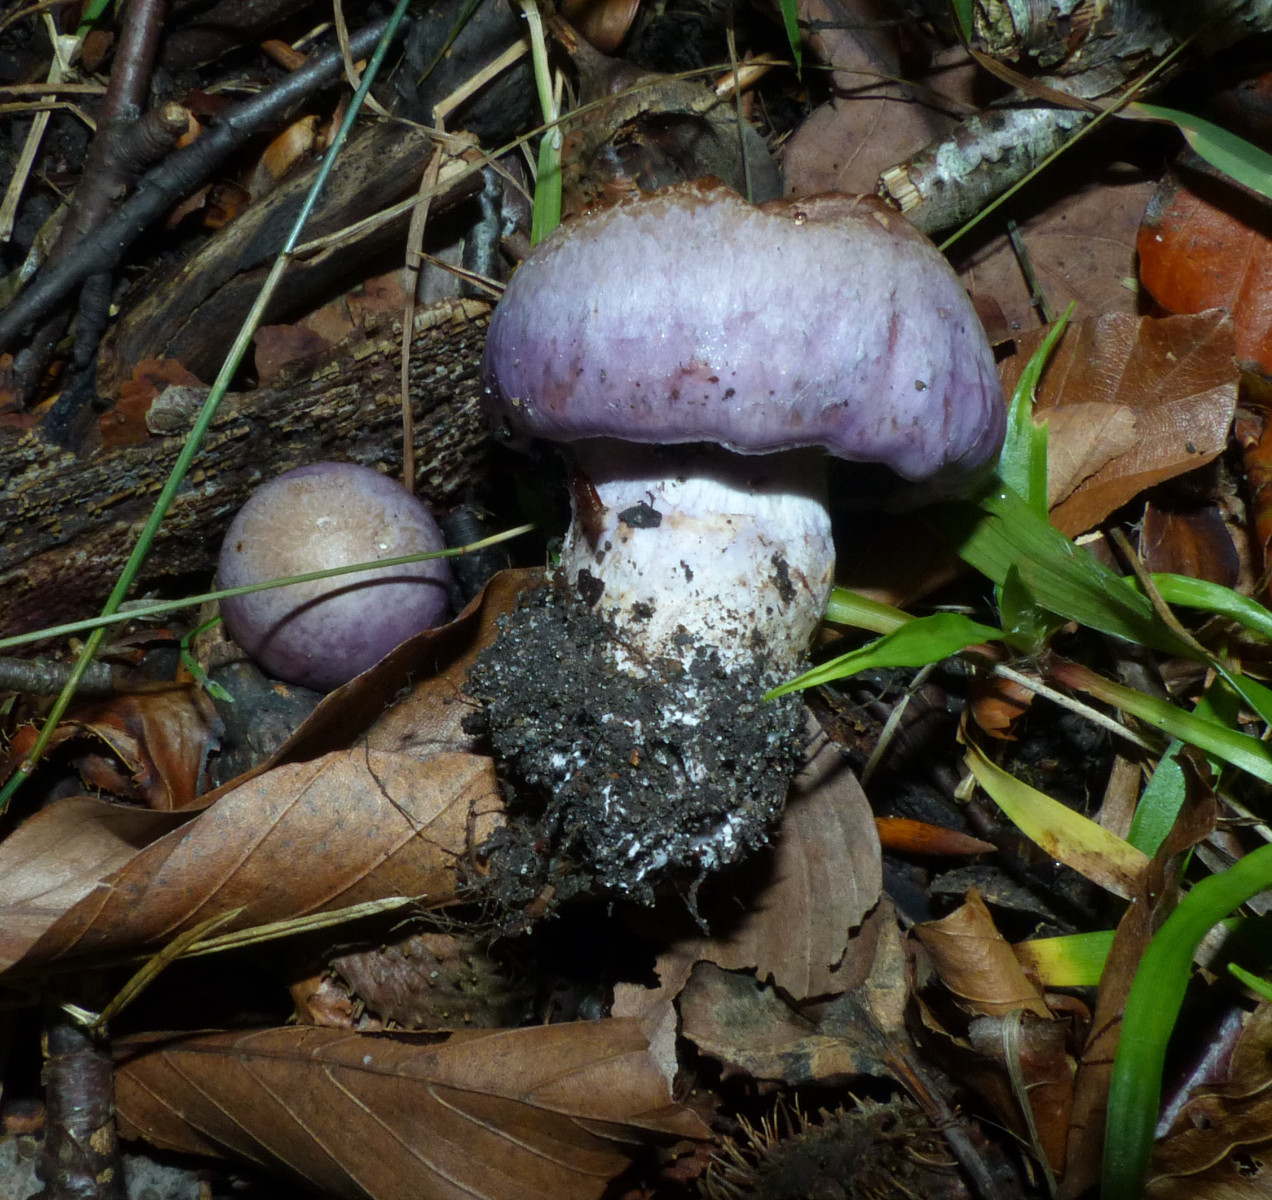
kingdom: Fungi
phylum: Basidiomycota
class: Agaricomycetes
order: Agaricales
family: Cortinariaceae
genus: Cortinarius
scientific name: Cortinarius largus
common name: violetrandet slørhat
